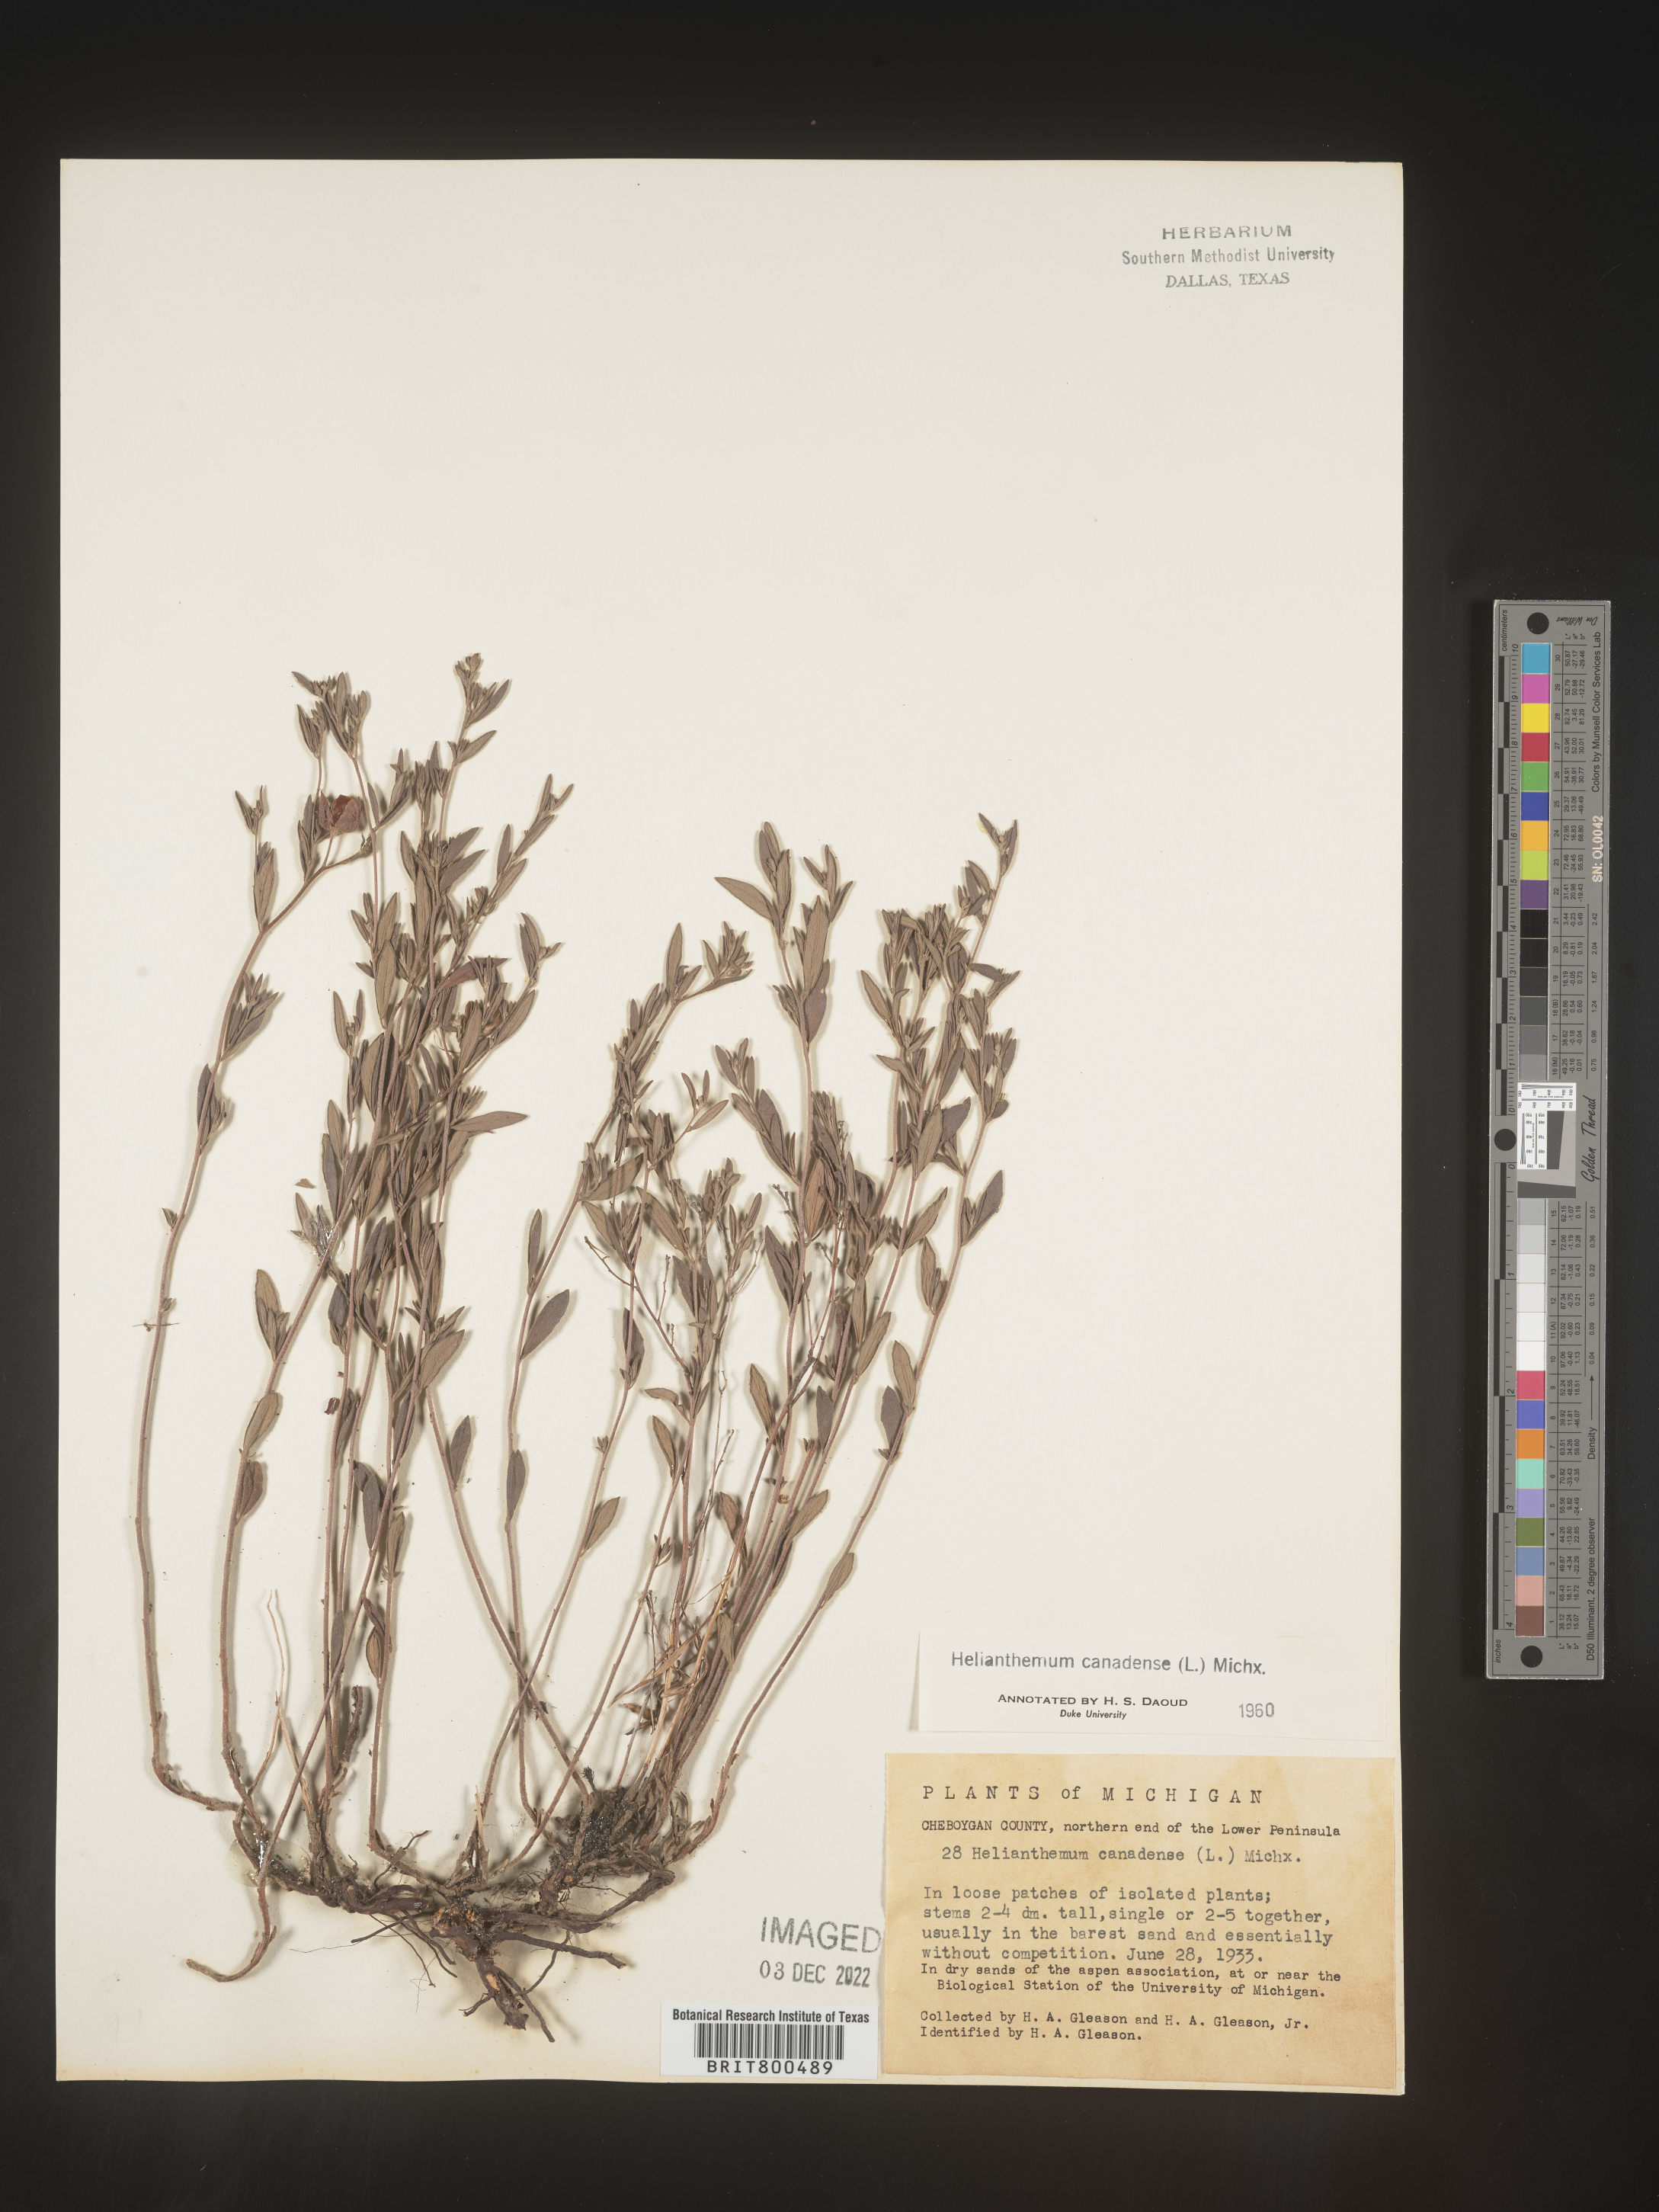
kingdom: Plantae
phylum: Tracheophyta
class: Magnoliopsida
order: Malvales
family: Cistaceae
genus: Crocanthemum
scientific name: Crocanthemum canadense
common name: Canada frostweed
